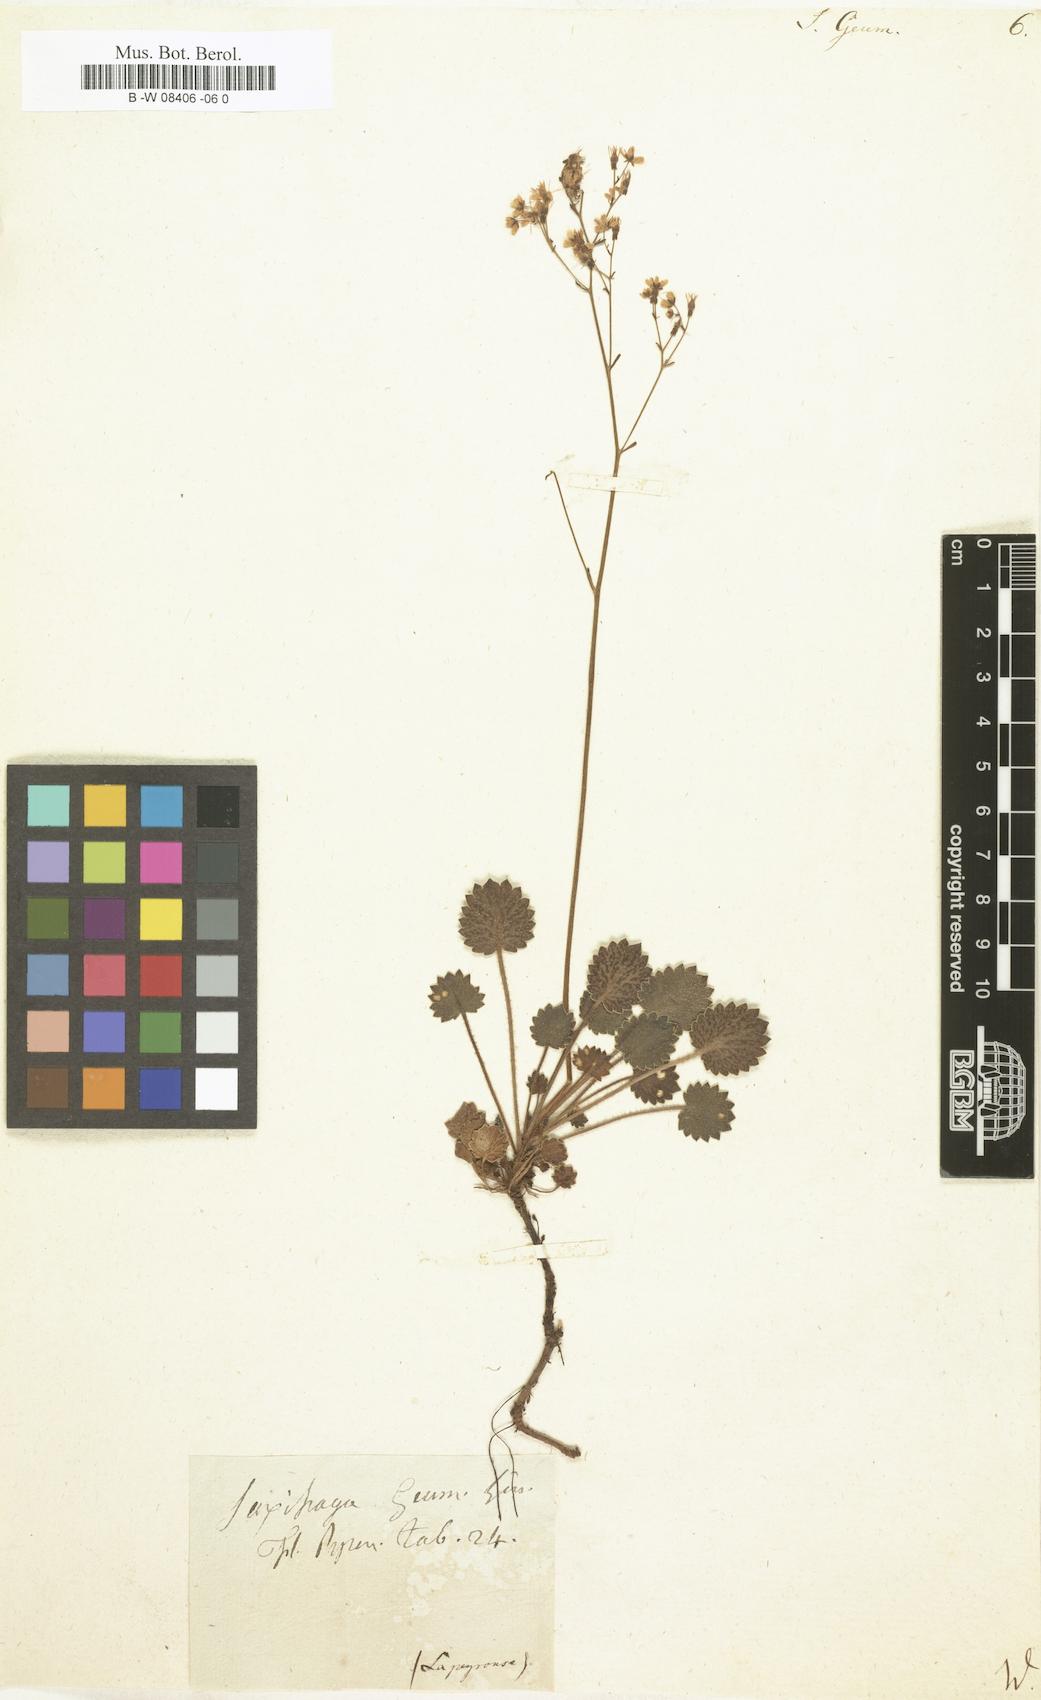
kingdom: Plantae
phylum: Tracheophyta
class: Magnoliopsida
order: Saxifragales
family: Saxifragaceae
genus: Saxifraga
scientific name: Saxifraga geum
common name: Geum saxifrage
